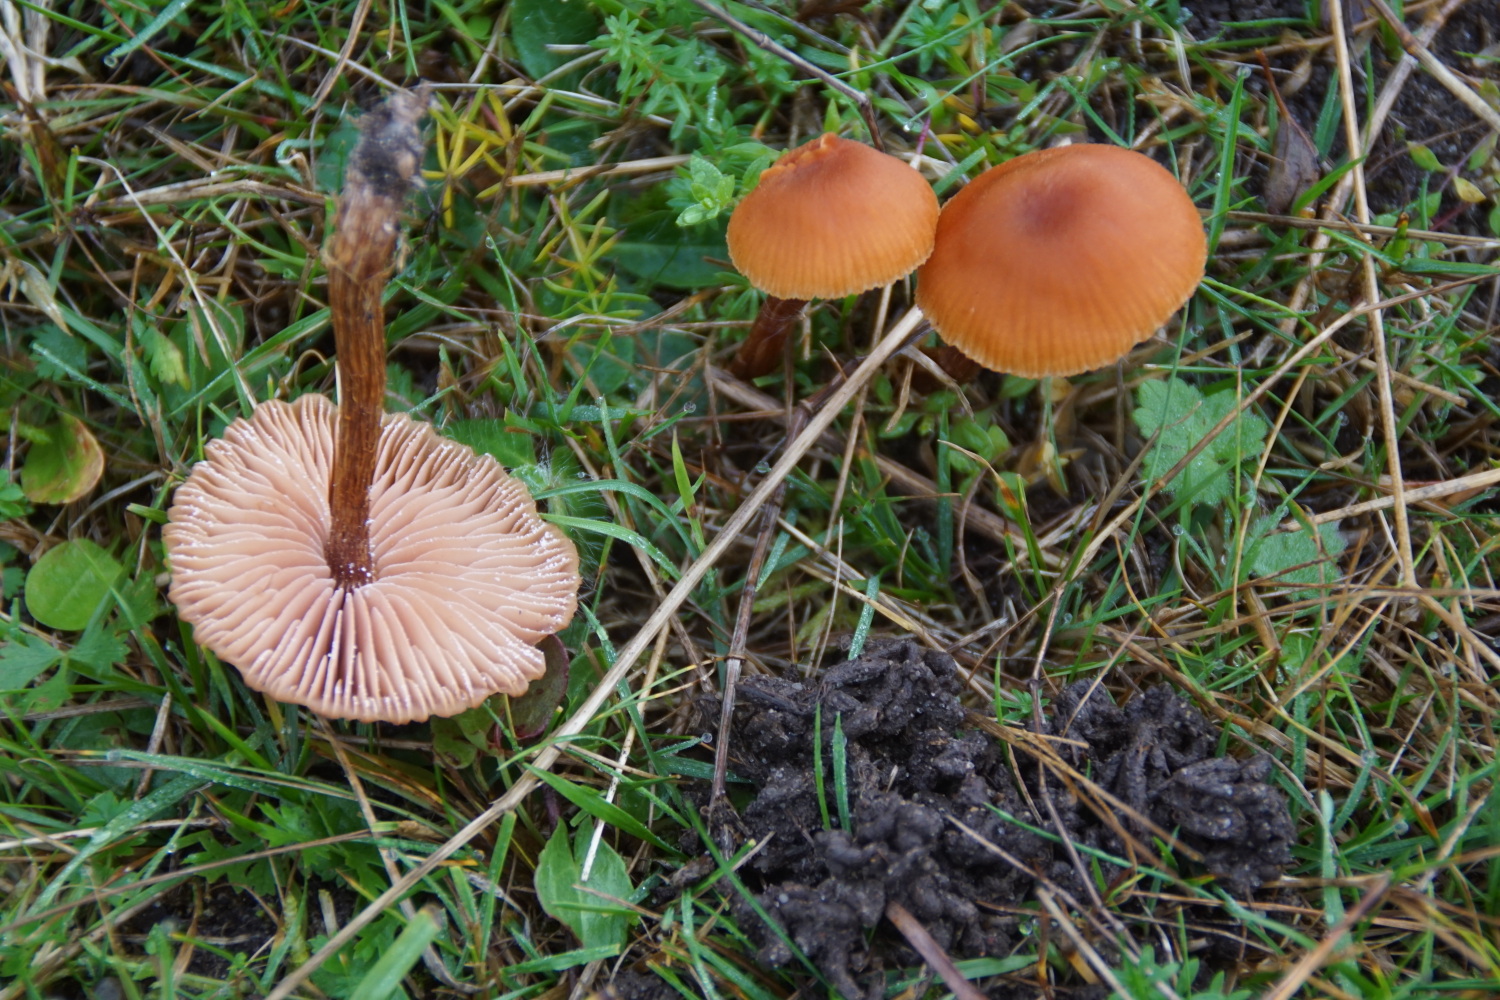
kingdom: Fungi
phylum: Basidiomycota
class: Agaricomycetes
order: Agaricales
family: Hydnangiaceae
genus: Laccaria
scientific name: Laccaria proxima
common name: stor ametysthat
